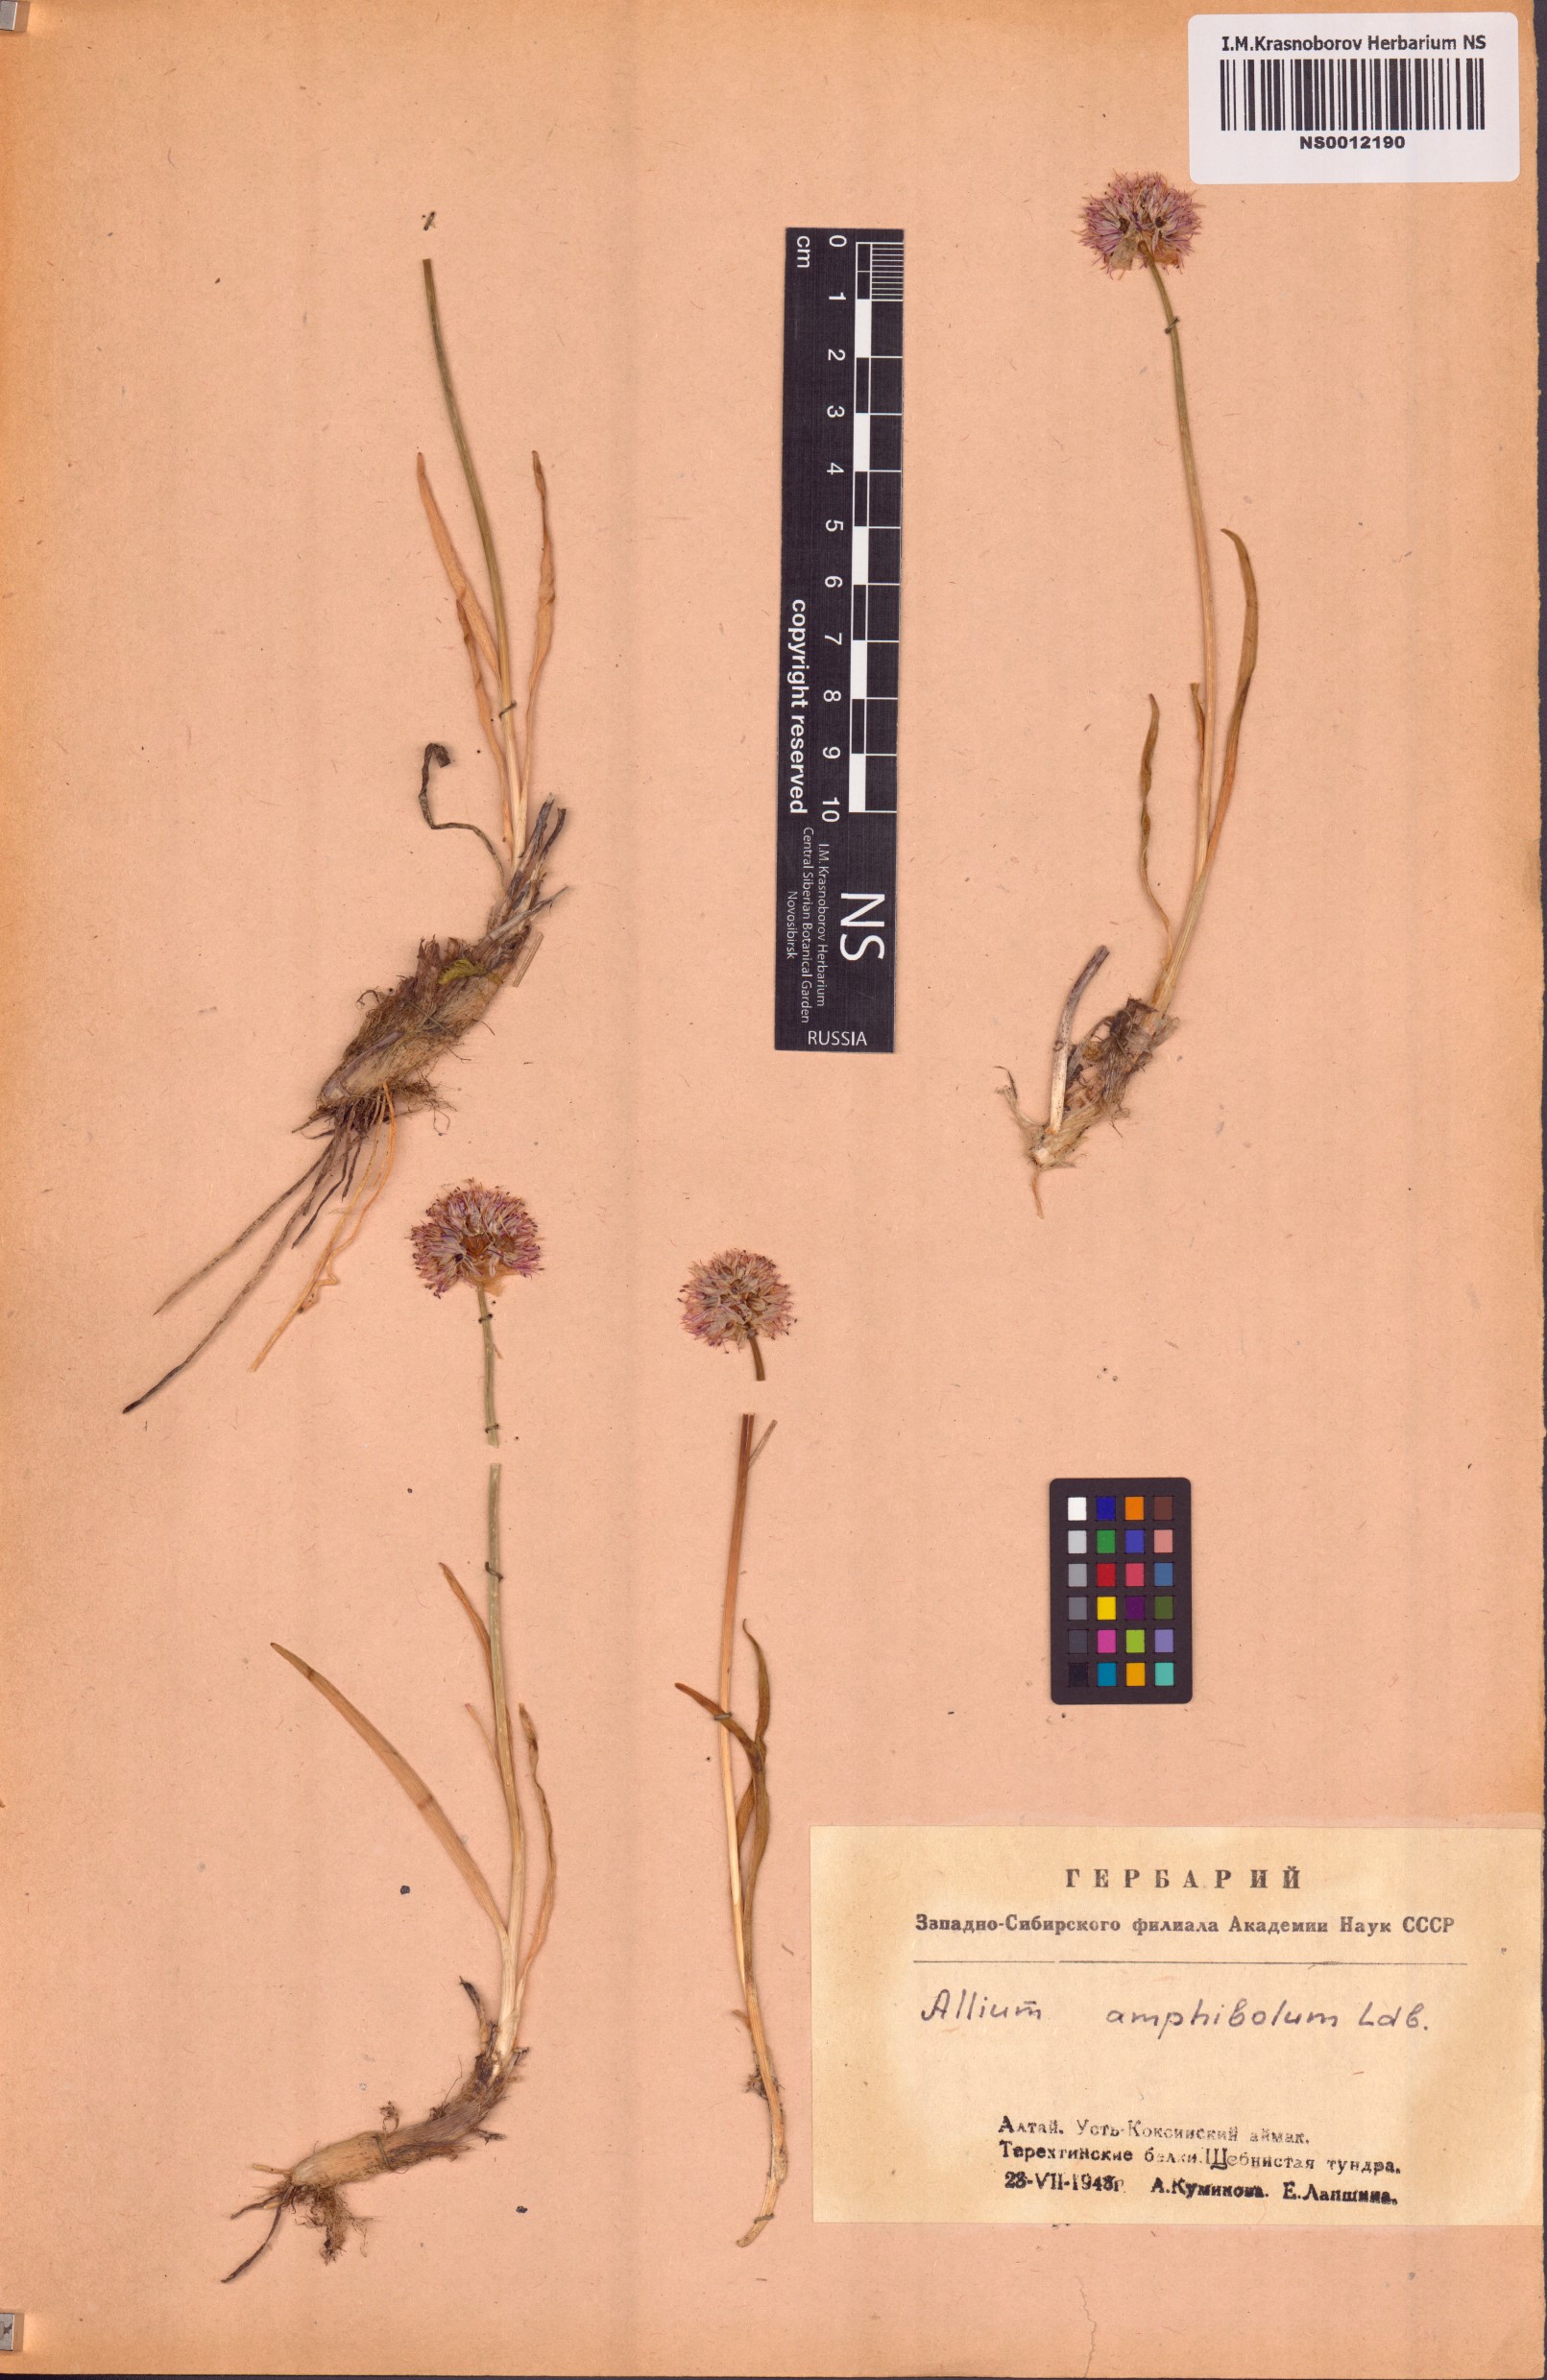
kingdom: Plantae
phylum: Tracheophyta
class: Liliopsida
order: Asparagales
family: Amaryllidaceae
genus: Allium
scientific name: Allium amphibolum
